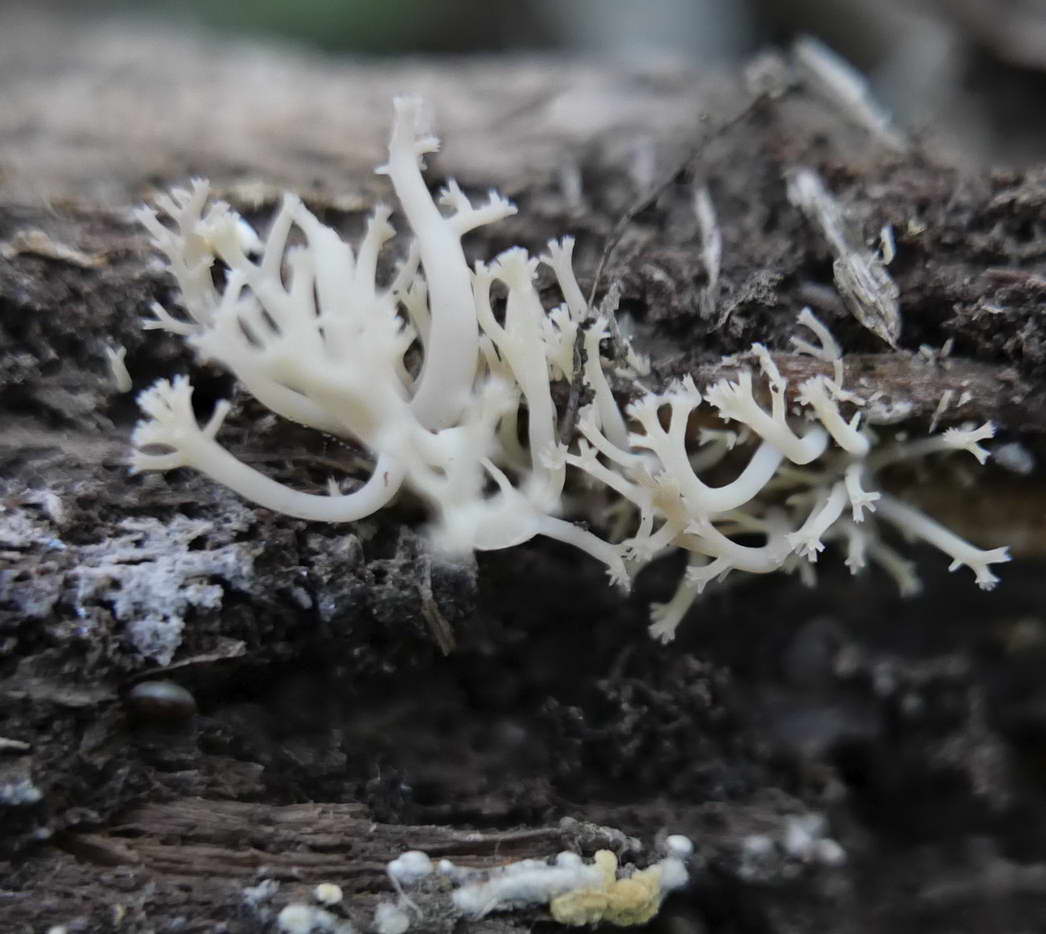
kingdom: Fungi
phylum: Basidiomycota
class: Agaricomycetes
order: Russulales
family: Auriscalpiaceae
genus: Artomyces
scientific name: Artomyces pyxidatus
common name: kandelabersvamp
